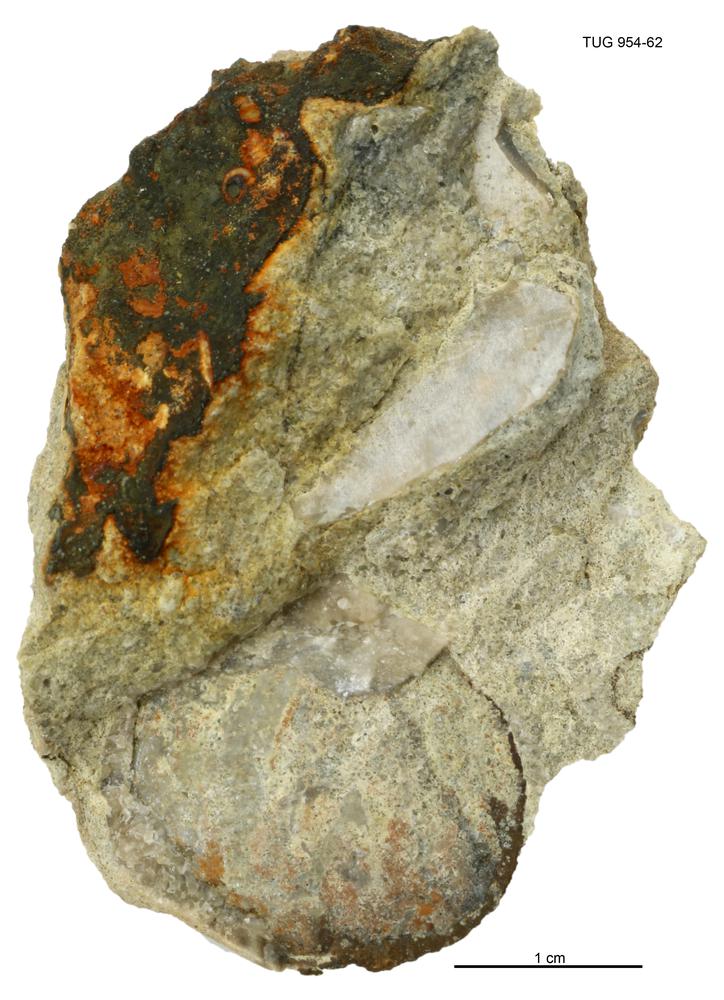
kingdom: Animalia
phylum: Mollusca
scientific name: Mollusca
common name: Mollusca
